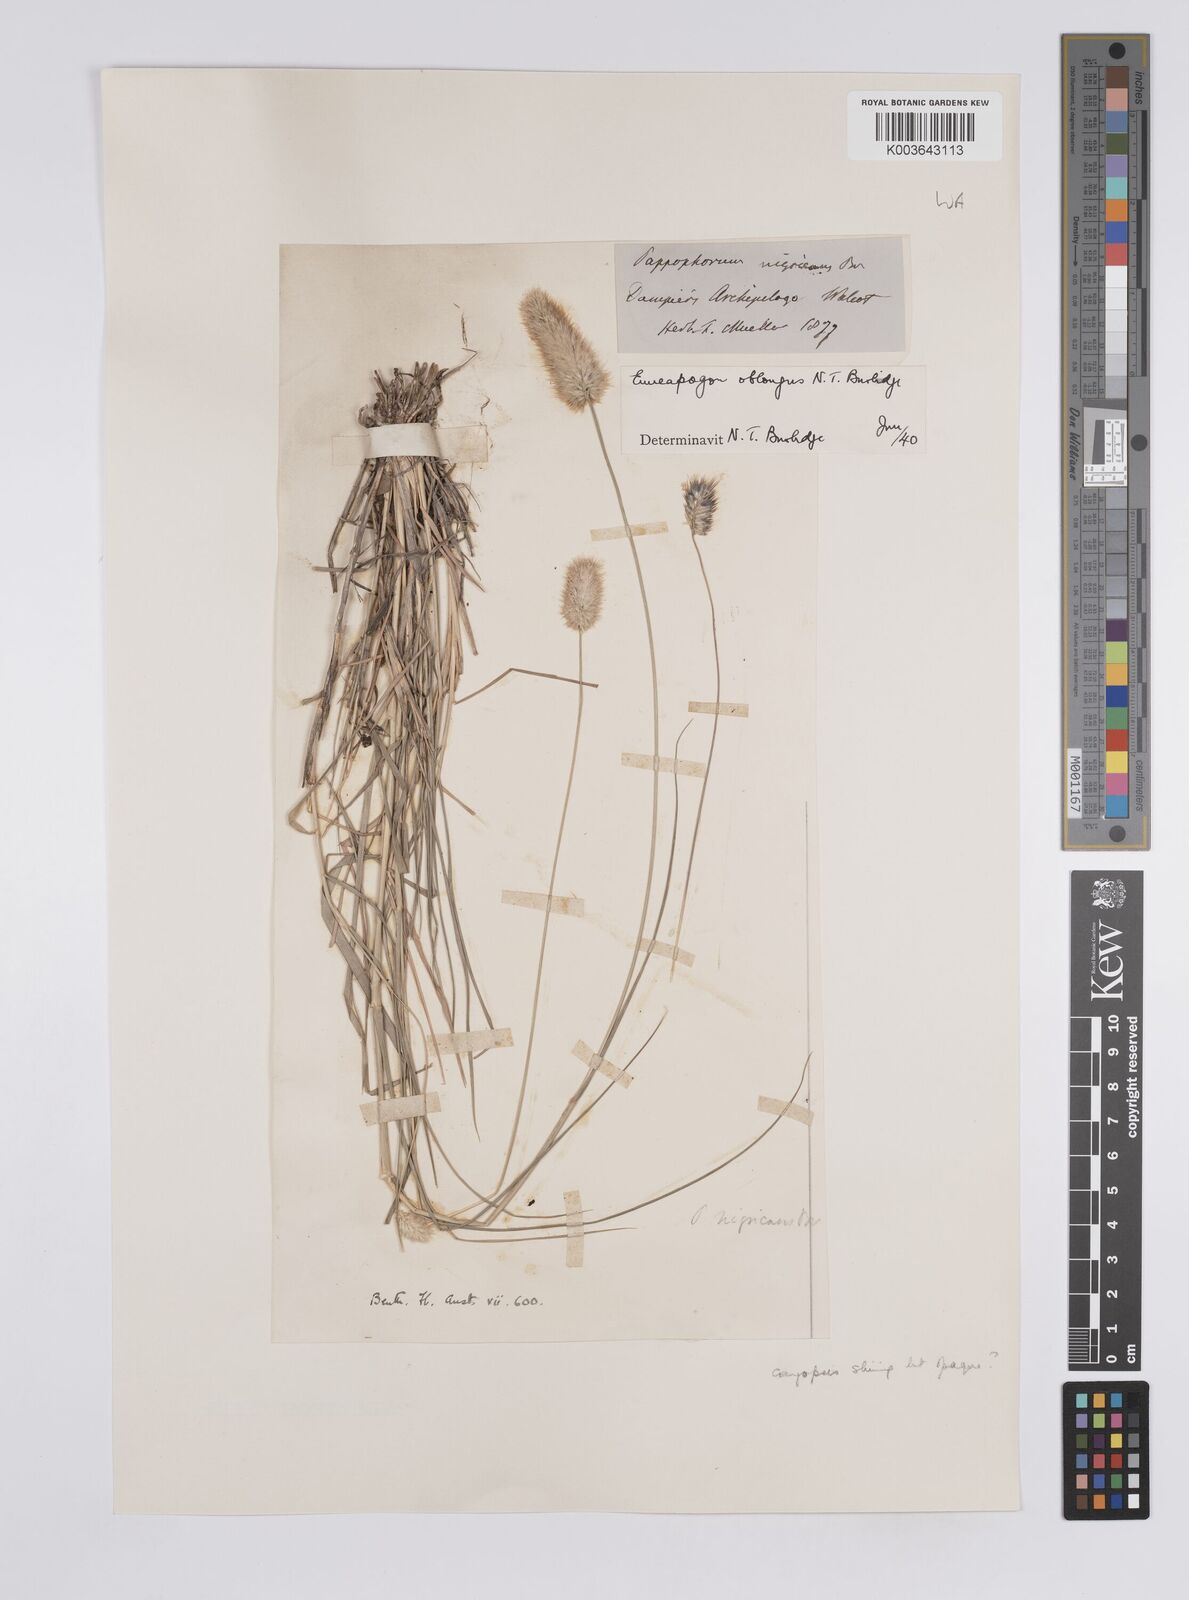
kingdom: Plantae
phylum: Tracheophyta
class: Liliopsida
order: Poales
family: Poaceae
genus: Enneapogon
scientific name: Enneapogon lindleyanus
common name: Conetop nineawn
